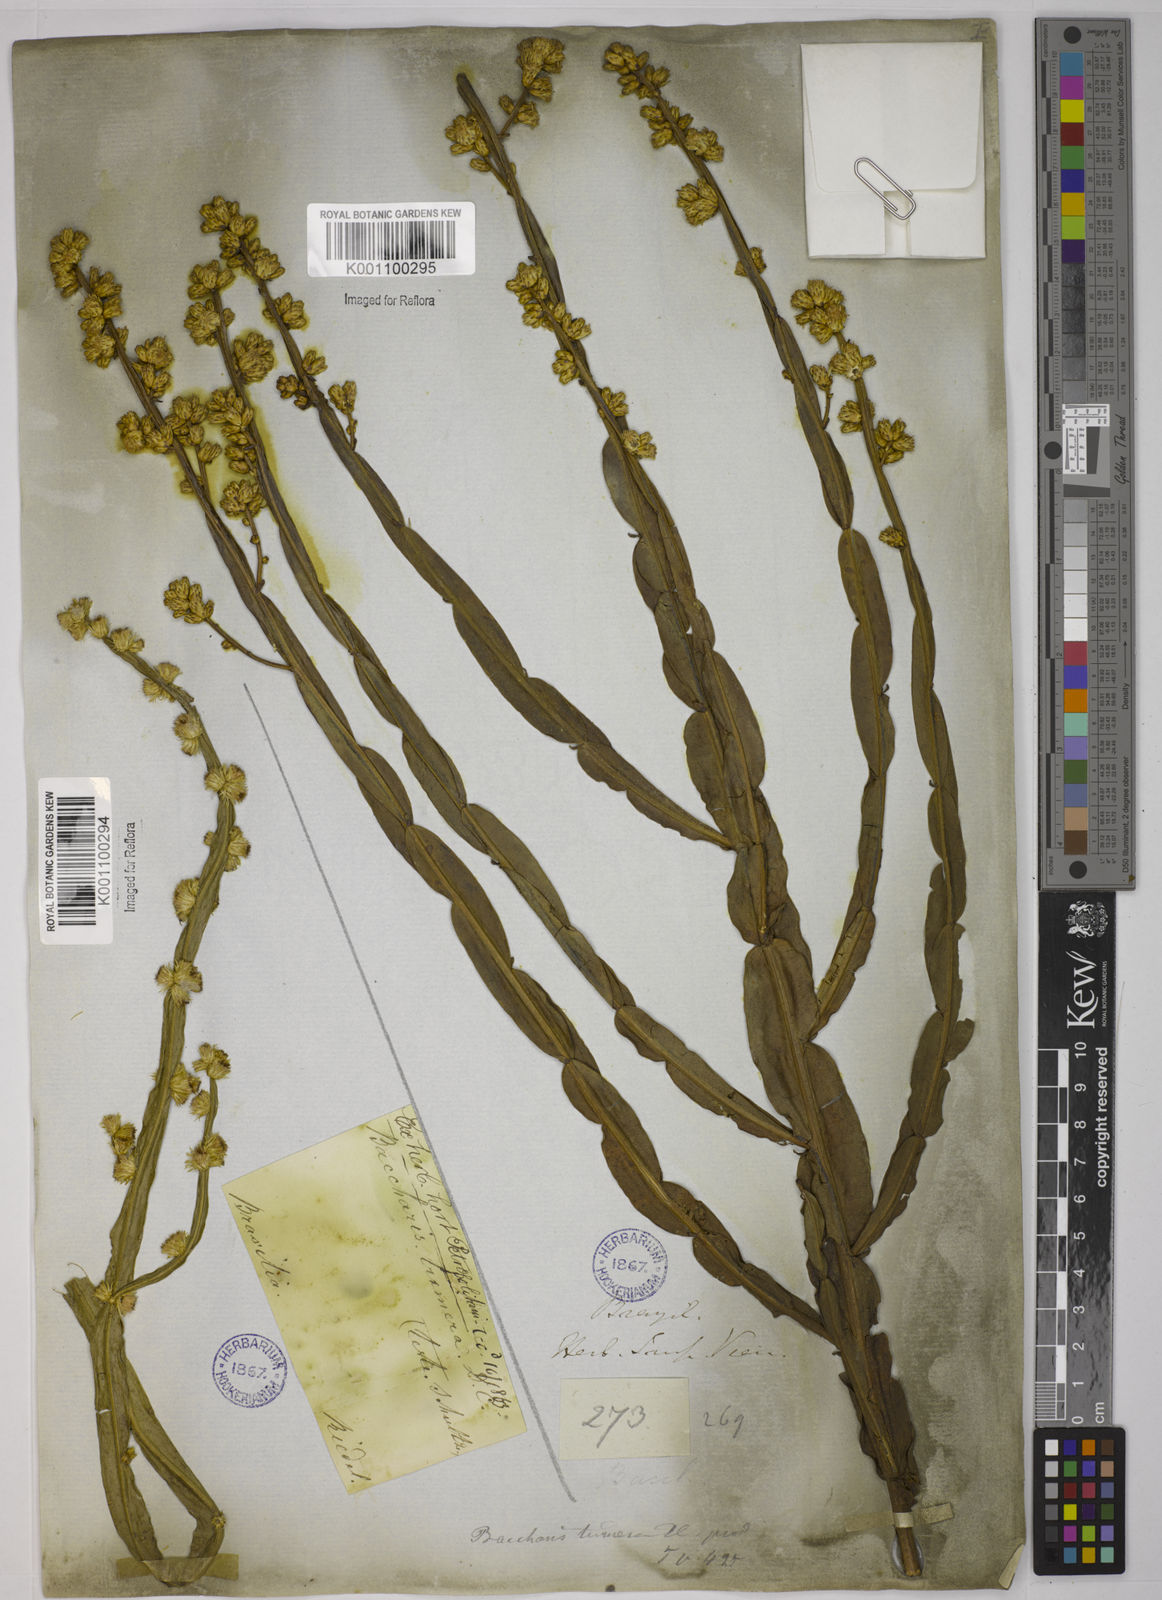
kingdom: Plantae
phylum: Tracheophyta
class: Magnoliopsida
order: Asterales
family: Asteraceae
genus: Baccharis
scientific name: Baccharis trimera
